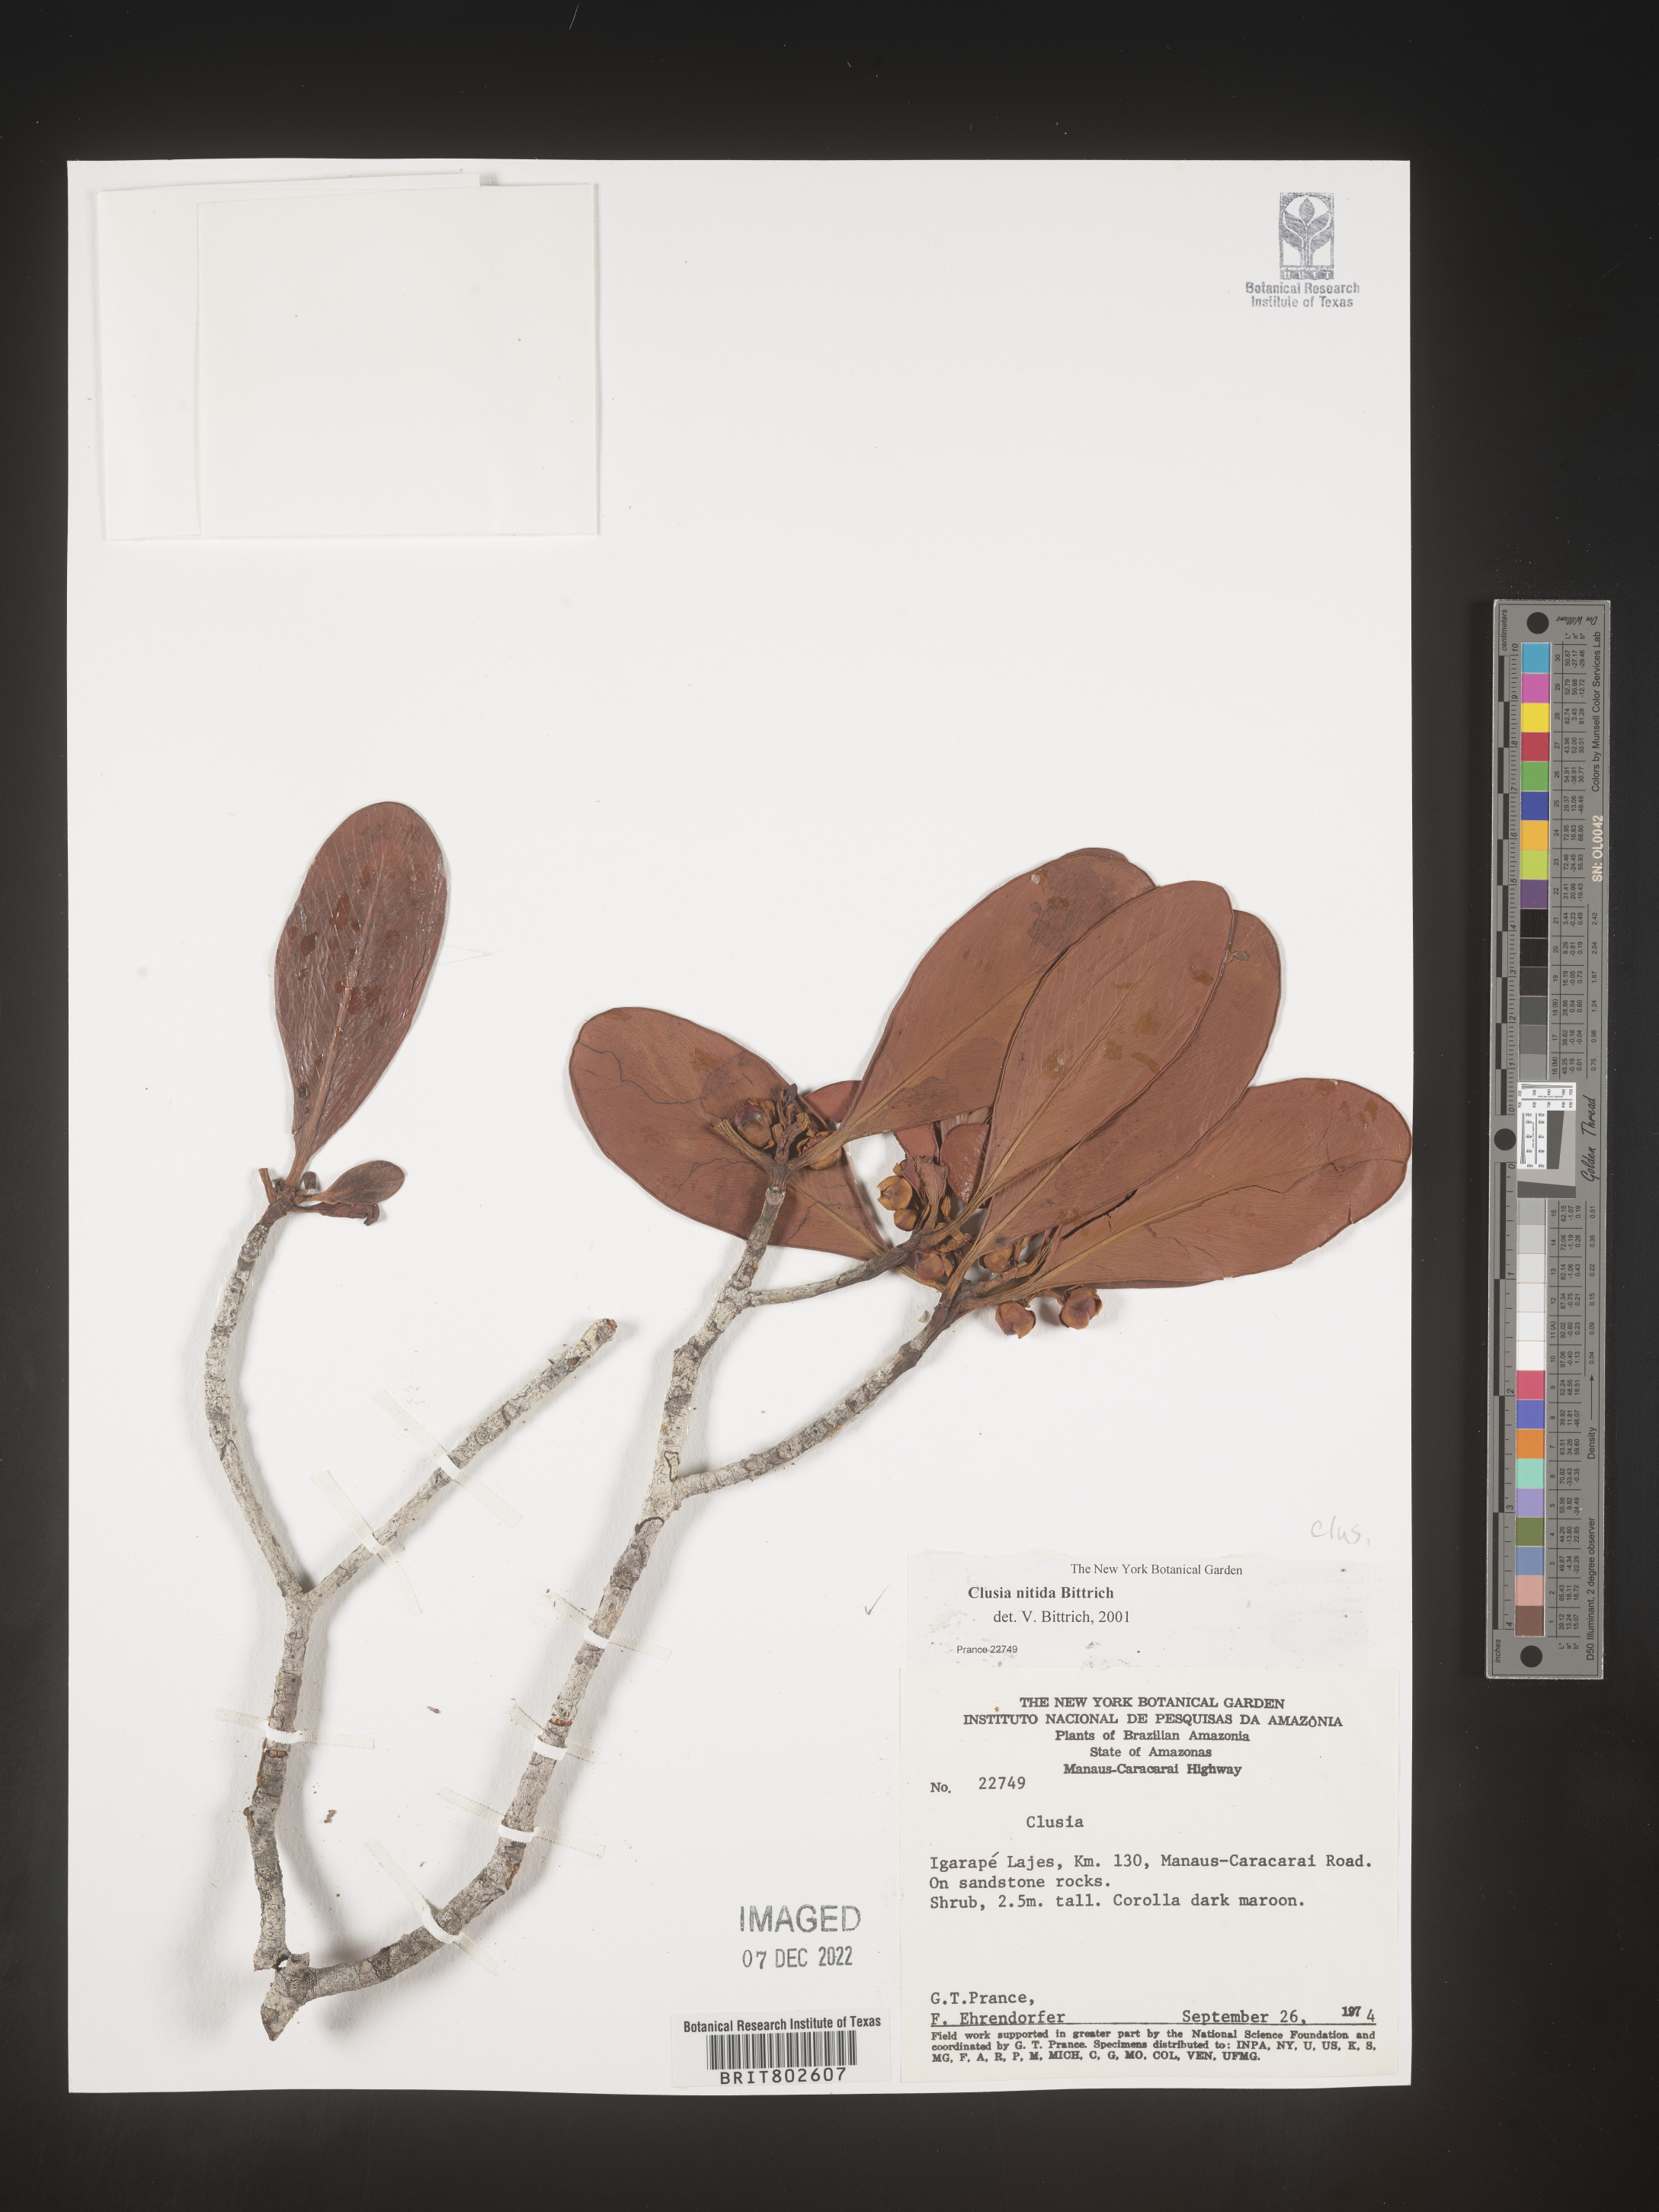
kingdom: Plantae
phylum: Tracheophyta
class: Magnoliopsida
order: Malpighiales
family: Clusiaceae
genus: Clusia
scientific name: Clusia nitida
